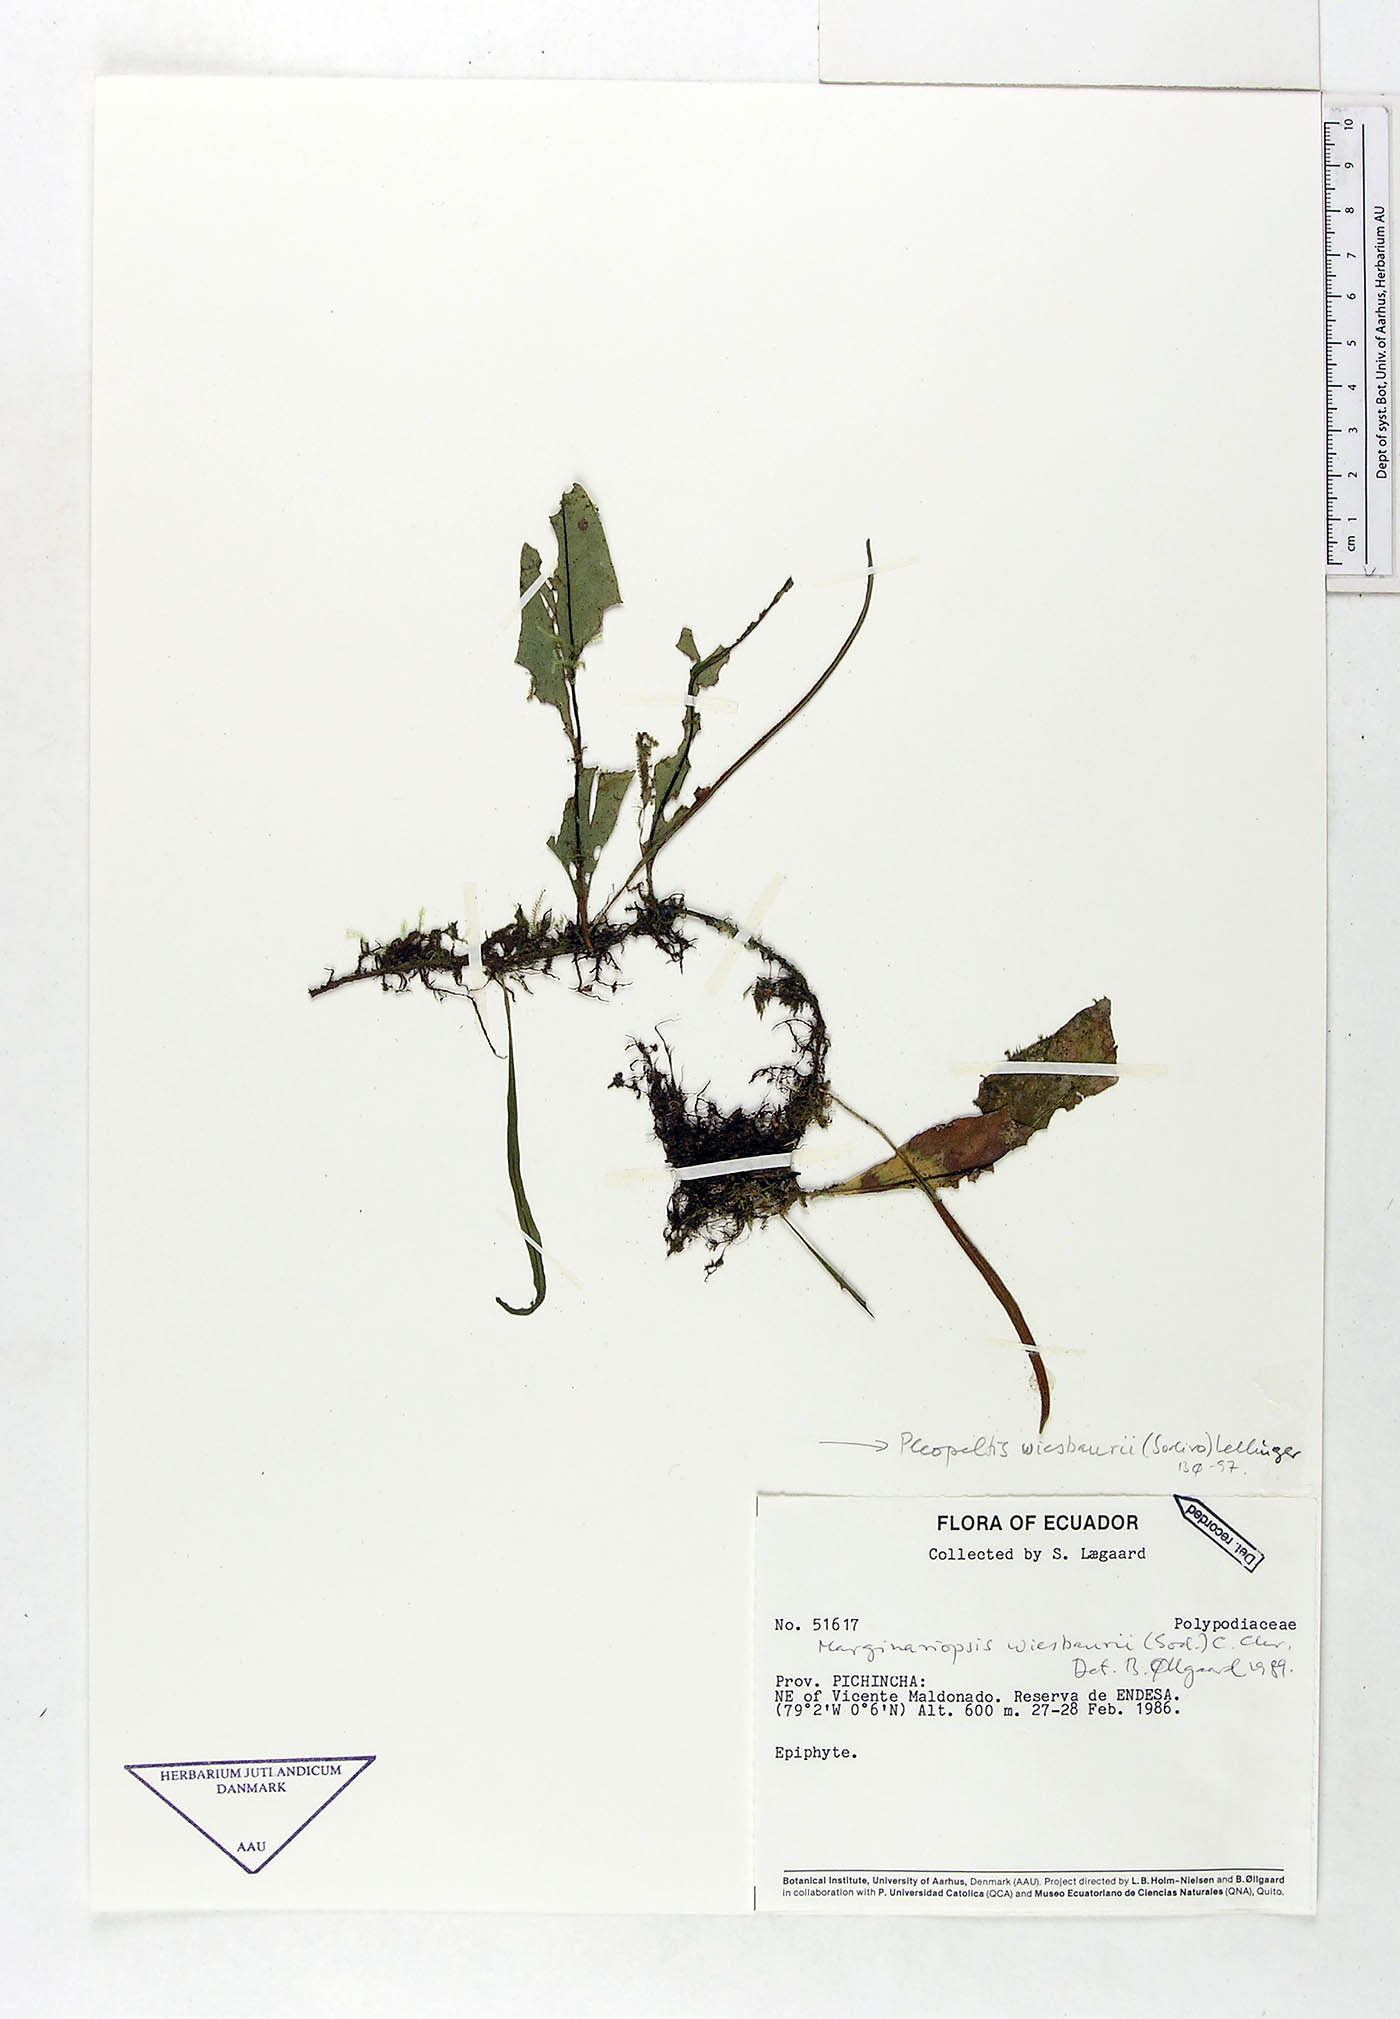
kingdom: Plantae
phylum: Tracheophyta
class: Polypodiopsida
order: Polypodiales
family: Polypodiaceae
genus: Pleopeltis
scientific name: Pleopeltis wiesbaurii
